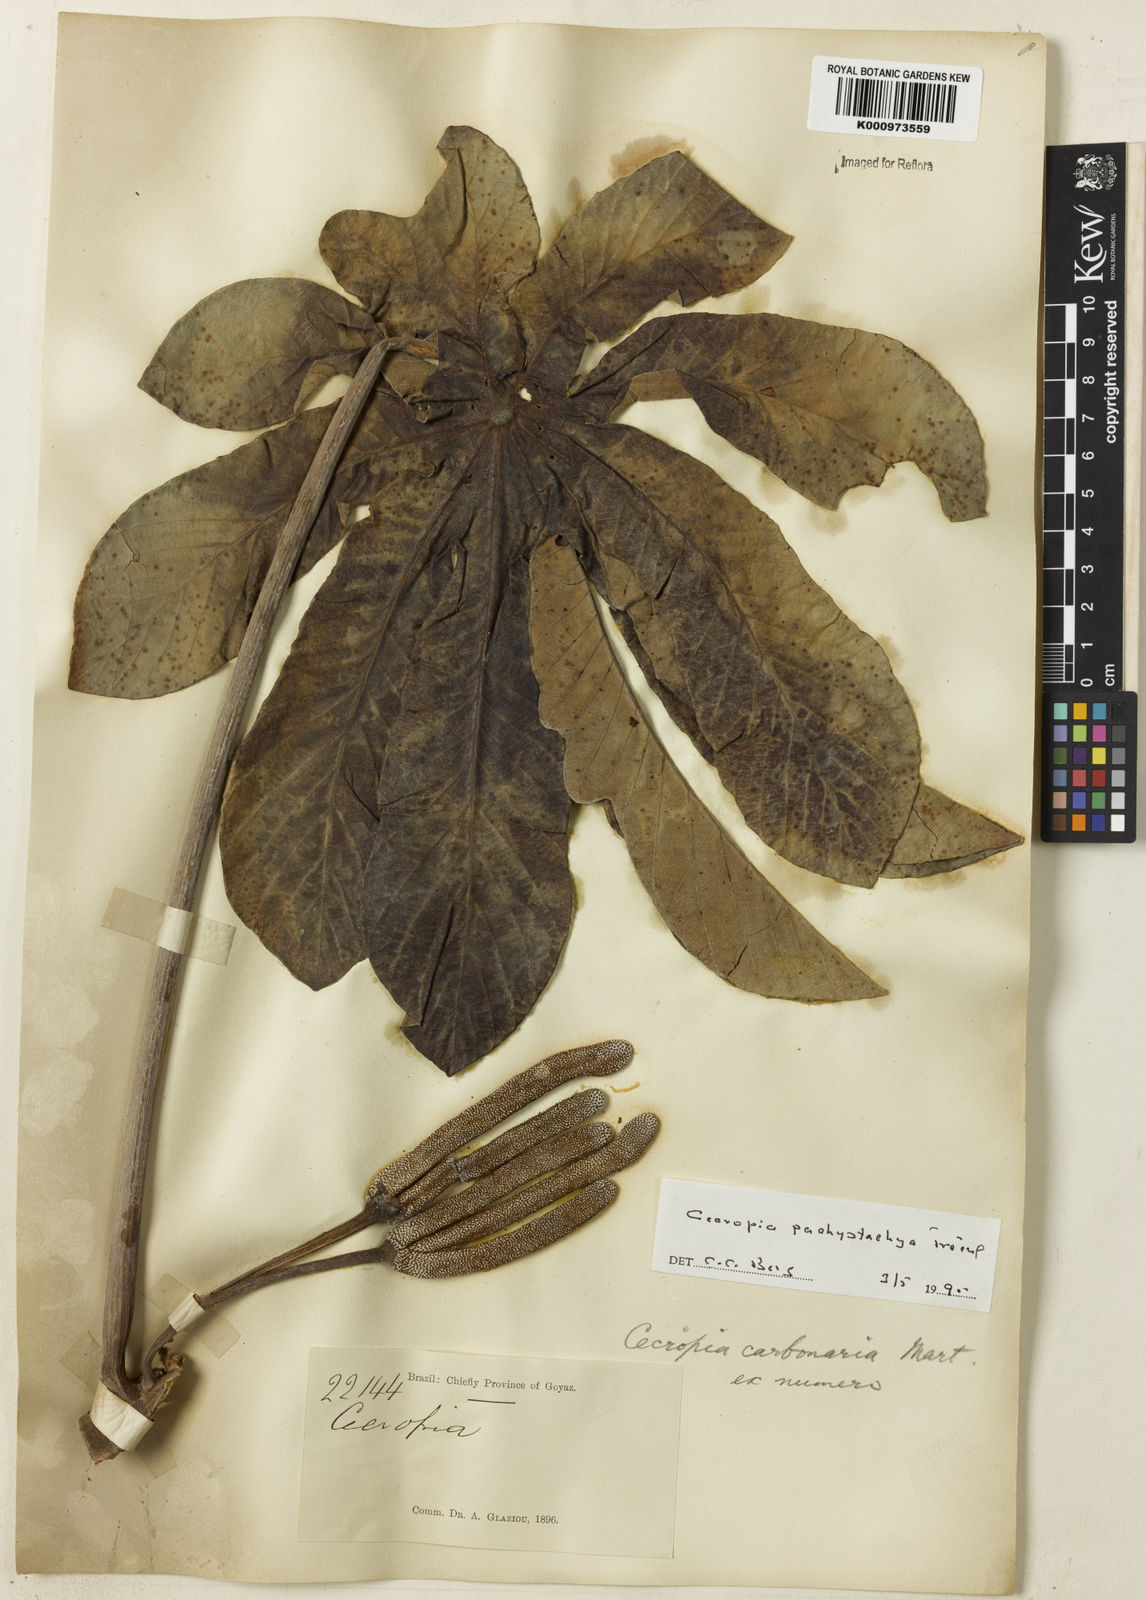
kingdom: Plantae
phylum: Tracheophyta
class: Magnoliopsida
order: Rosales
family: Urticaceae
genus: Cecropia
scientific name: Cecropia
